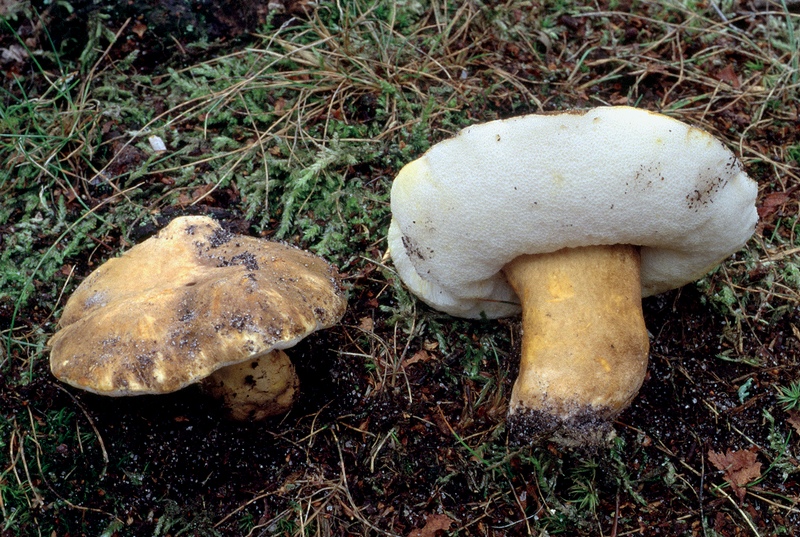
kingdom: Fungi
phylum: Basidiomycota
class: Agaricomycetes
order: Boletales
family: Gyroporaceae
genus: Gyroporus
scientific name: Gyroporus castaneus
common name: kastanie-kammerrørhat
